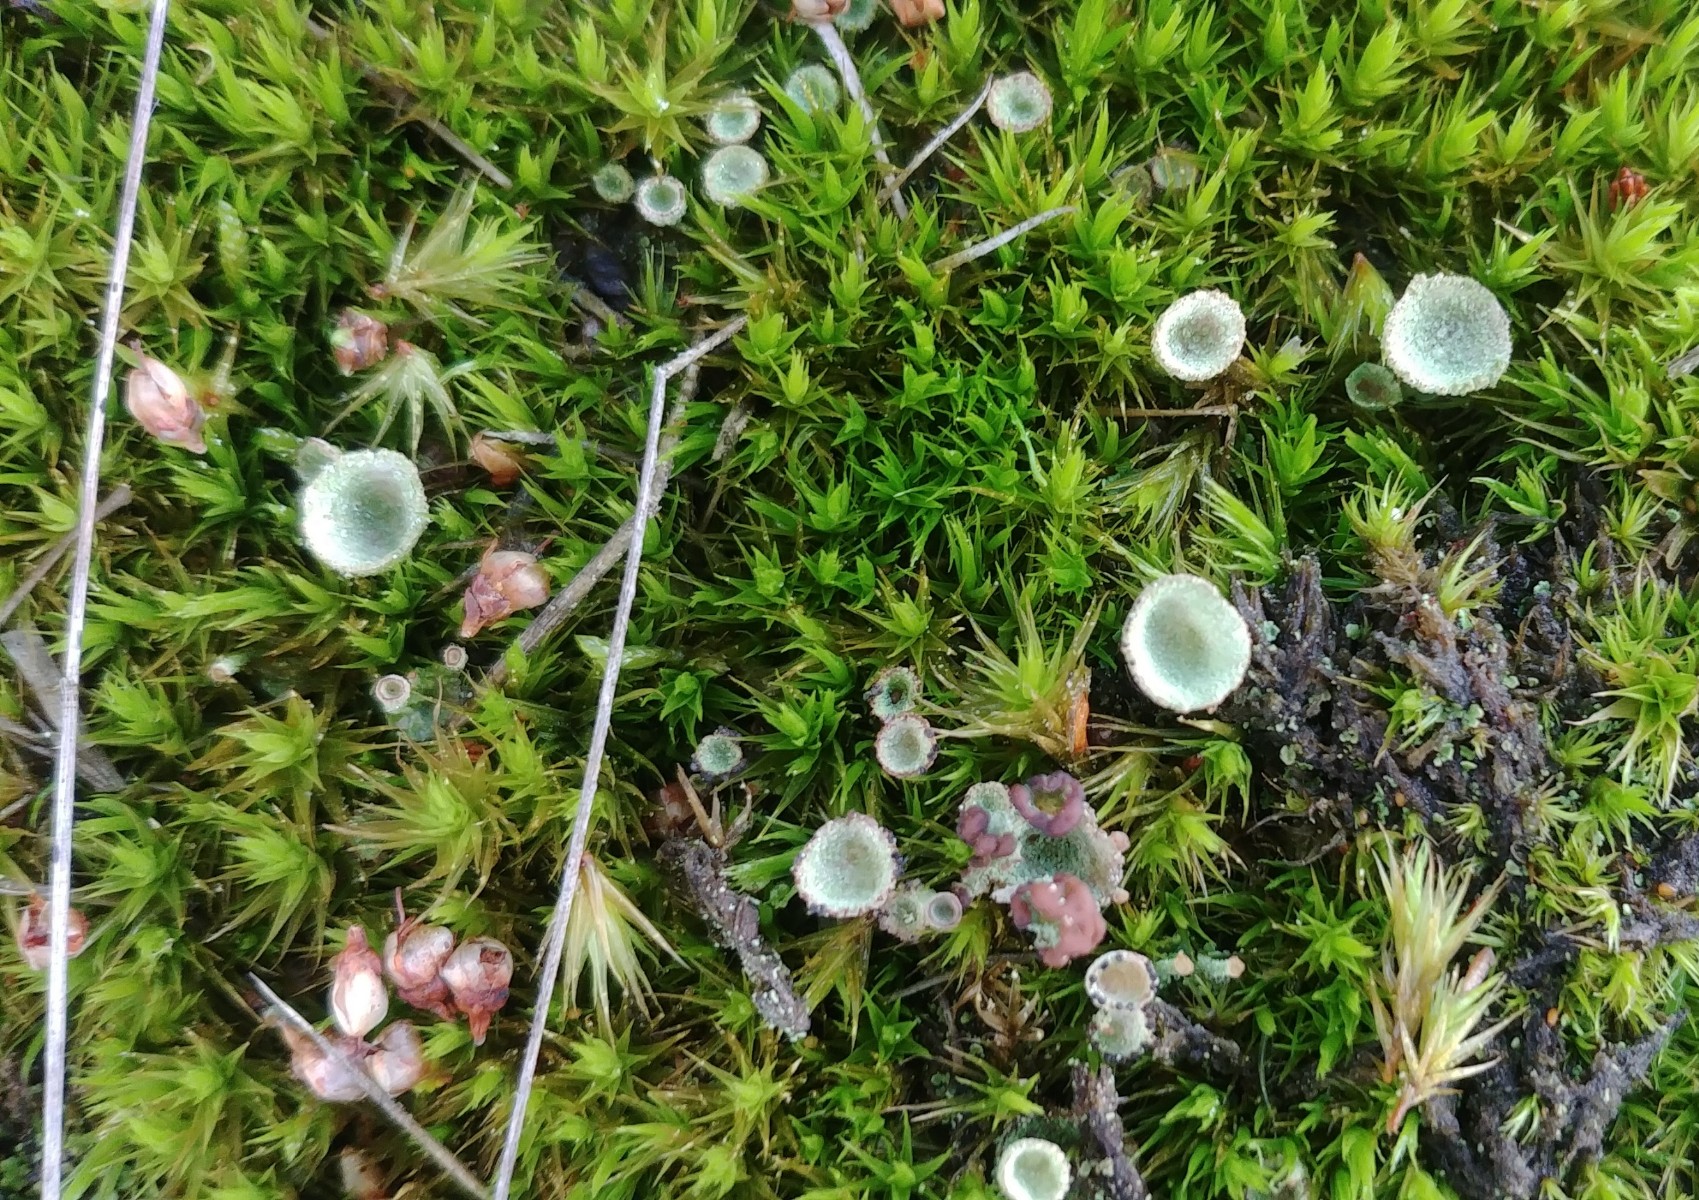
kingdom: Fungi
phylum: Ascomycota
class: Lecanoromycetes
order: Lecanorales
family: Cladoniaceae
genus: Cladonia
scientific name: Cladonia
